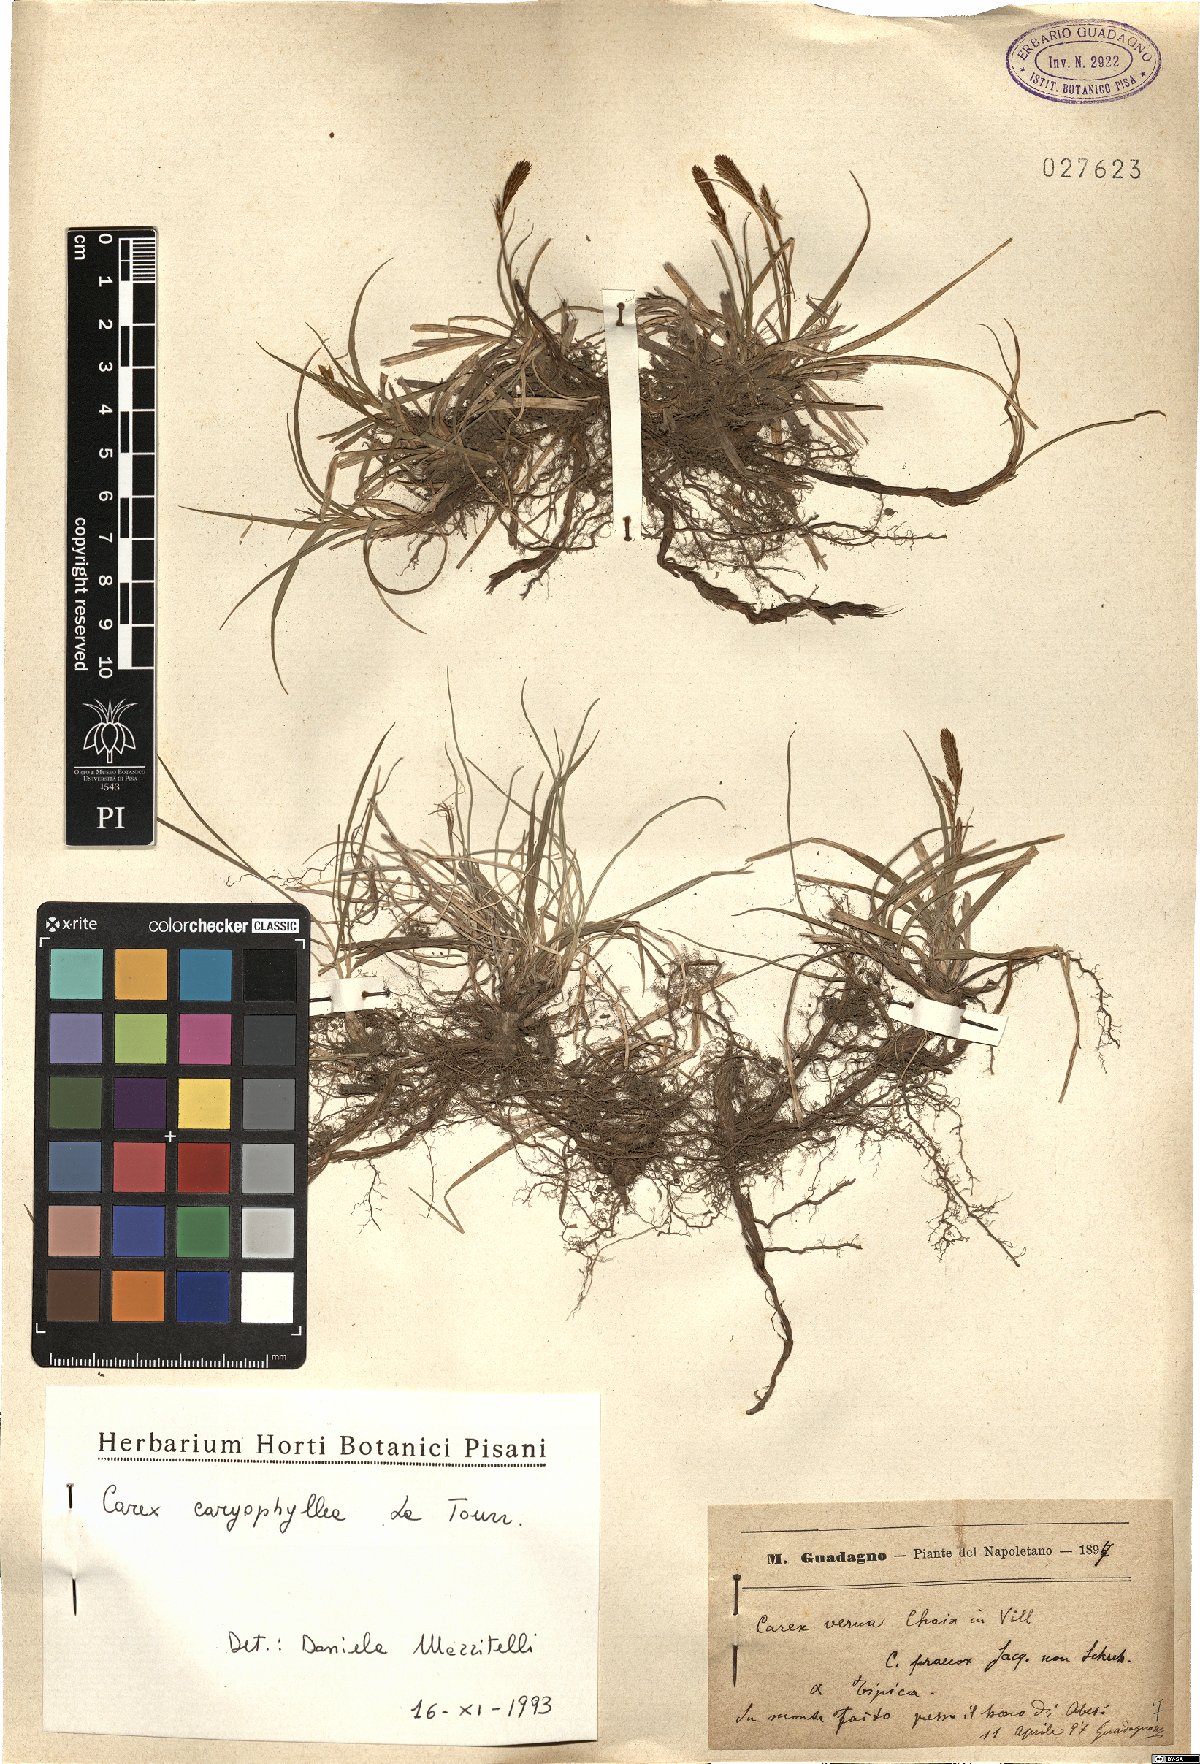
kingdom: Plantae
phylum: Tracheophyta
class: Liliopsida
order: Poales
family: Cyperaceae
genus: Carex
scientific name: Carex caryophyllea
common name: Spring sedge
